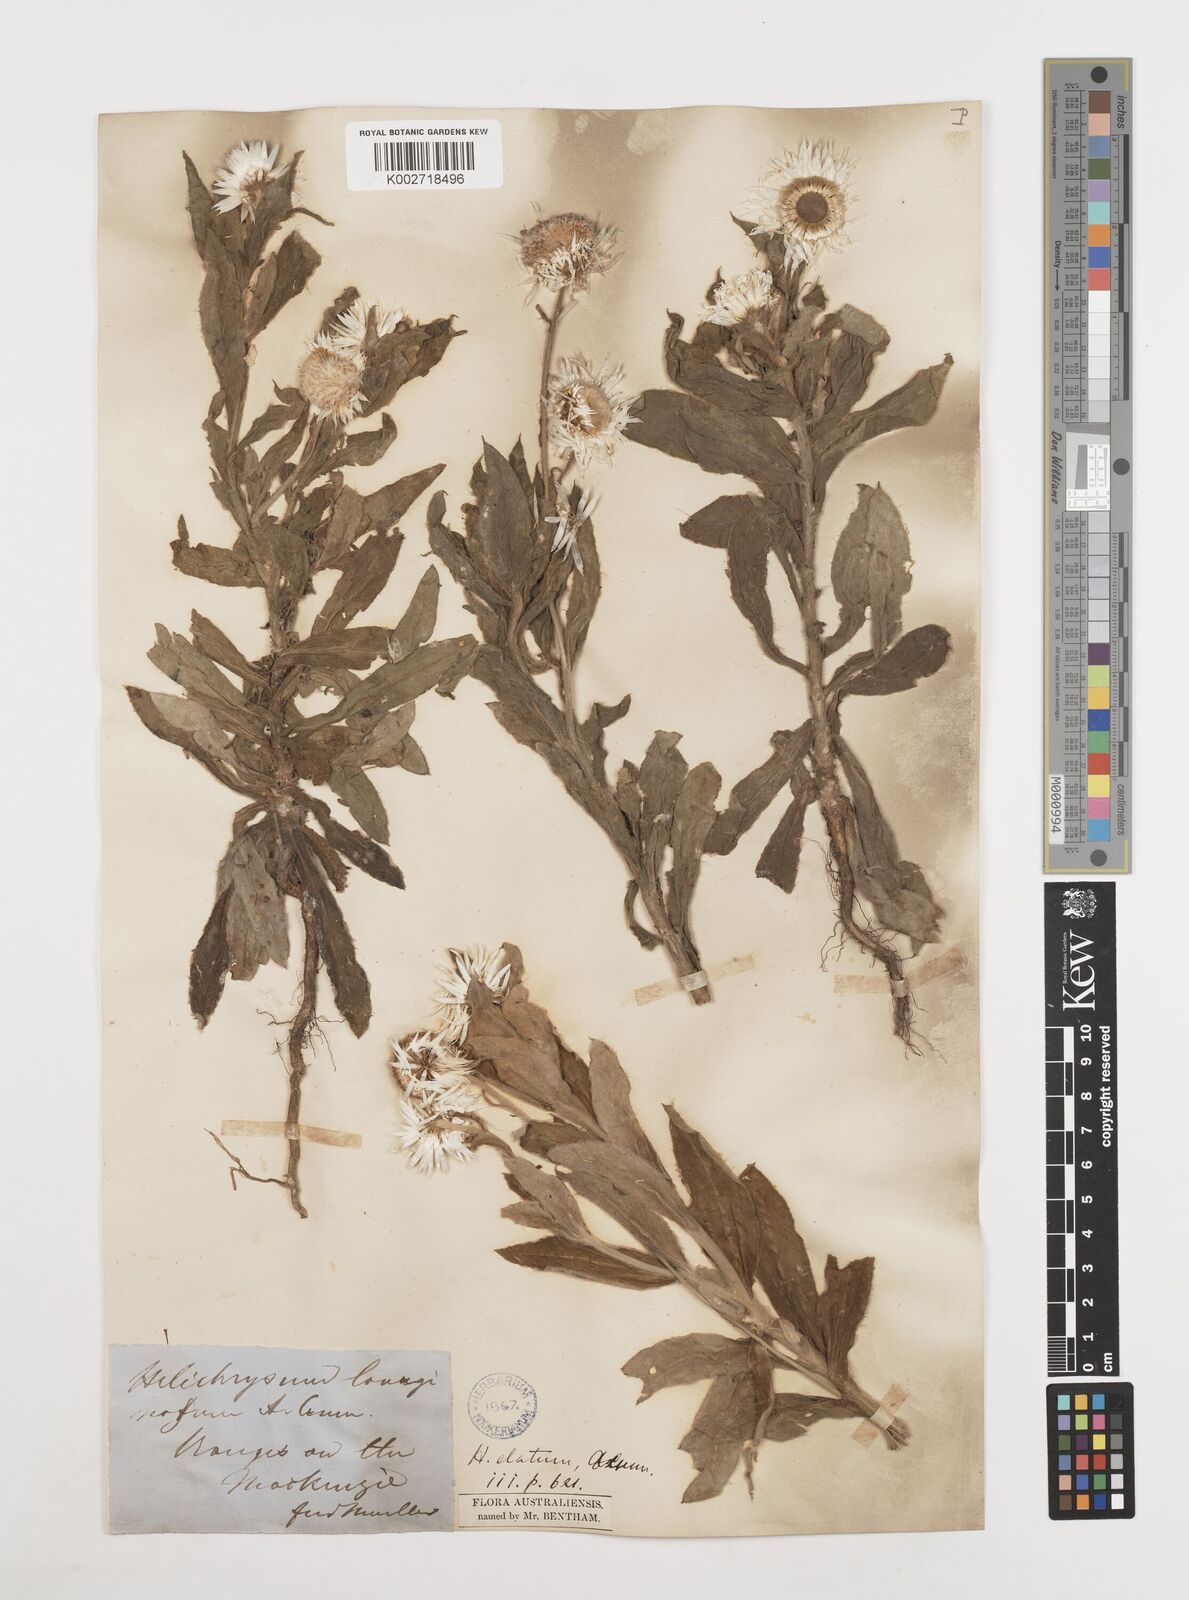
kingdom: Plantae
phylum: Tracheophyta
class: Magnoliopsida
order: Asterales
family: Asteraceae
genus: Leucozoma
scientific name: Leucozoma elatum
